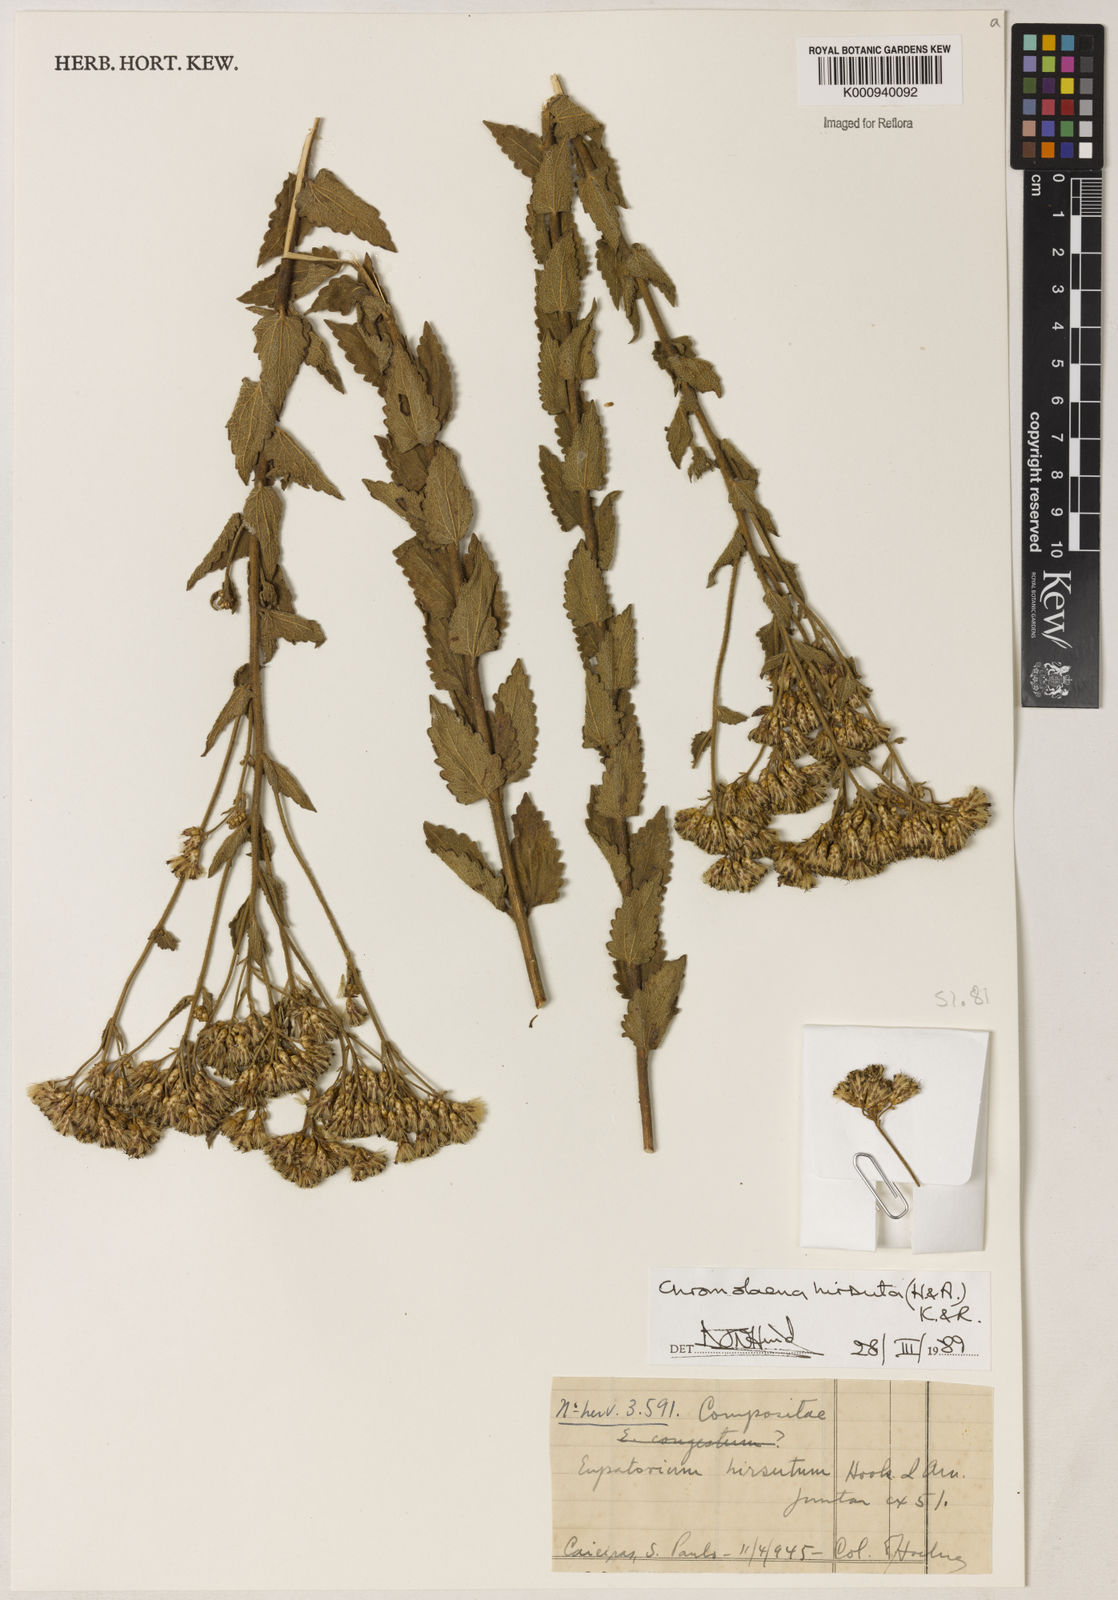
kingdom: Plantae
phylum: Tracheophyta
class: Magnoliopsida
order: Asterales
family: Asteraceae
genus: Chromolaena
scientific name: Chromolaena hirsuta
